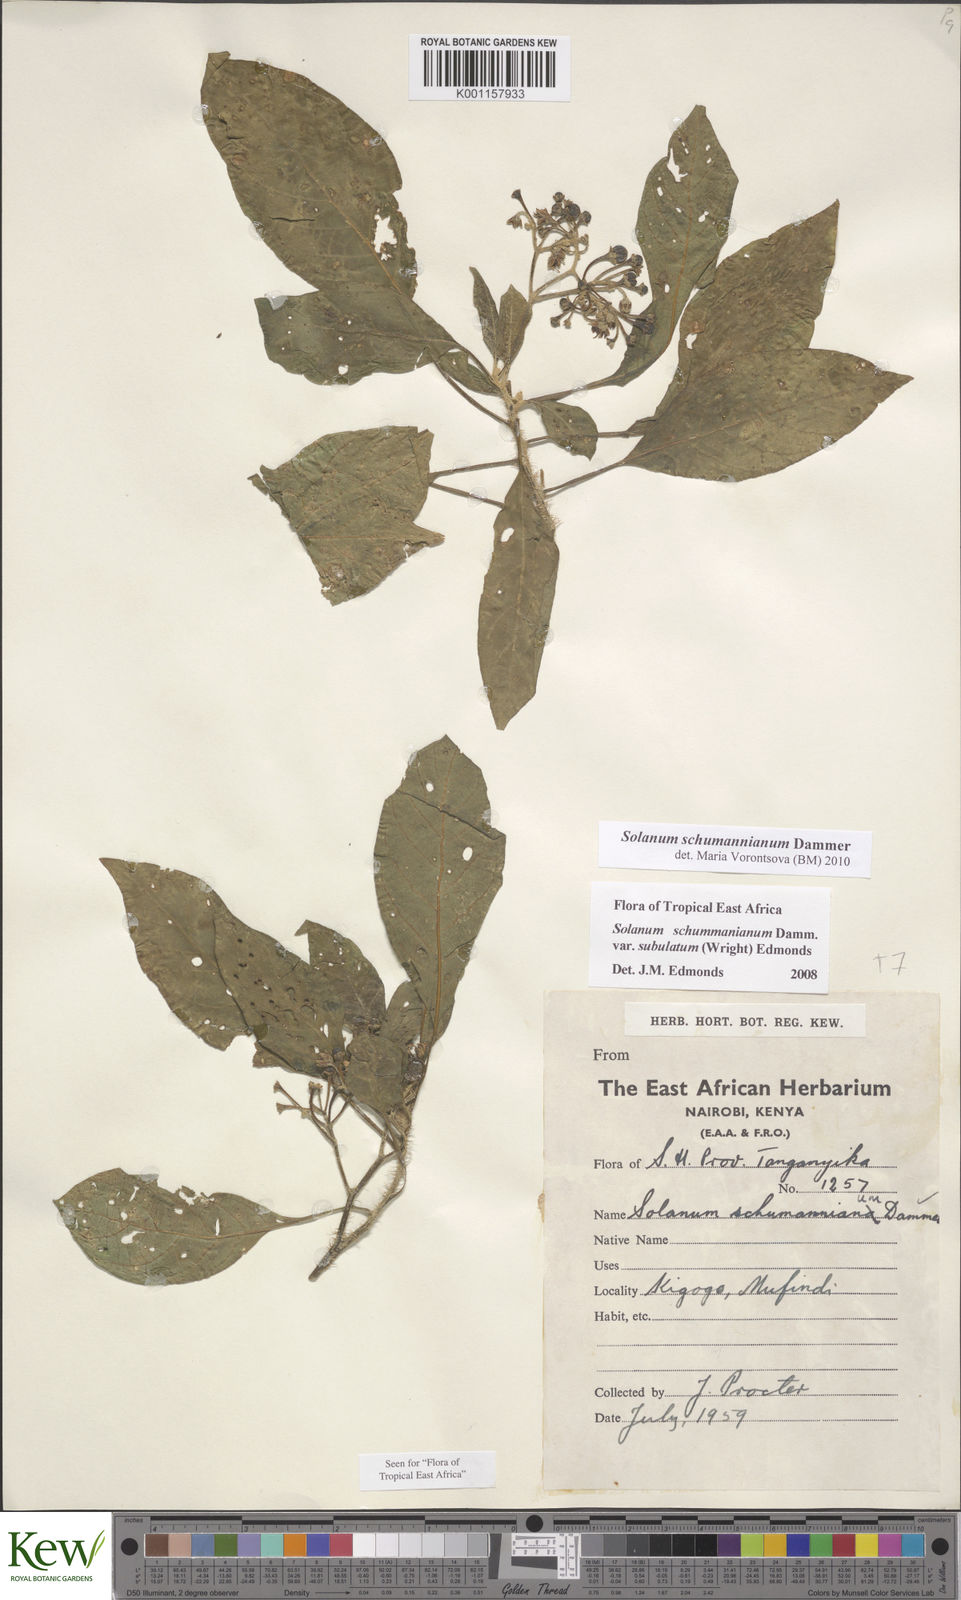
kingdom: Plantae
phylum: Tracheophyta
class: Magnoliopsida
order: Solanales
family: Solanaceae
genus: Solanum
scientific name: Solanum schumannianum
